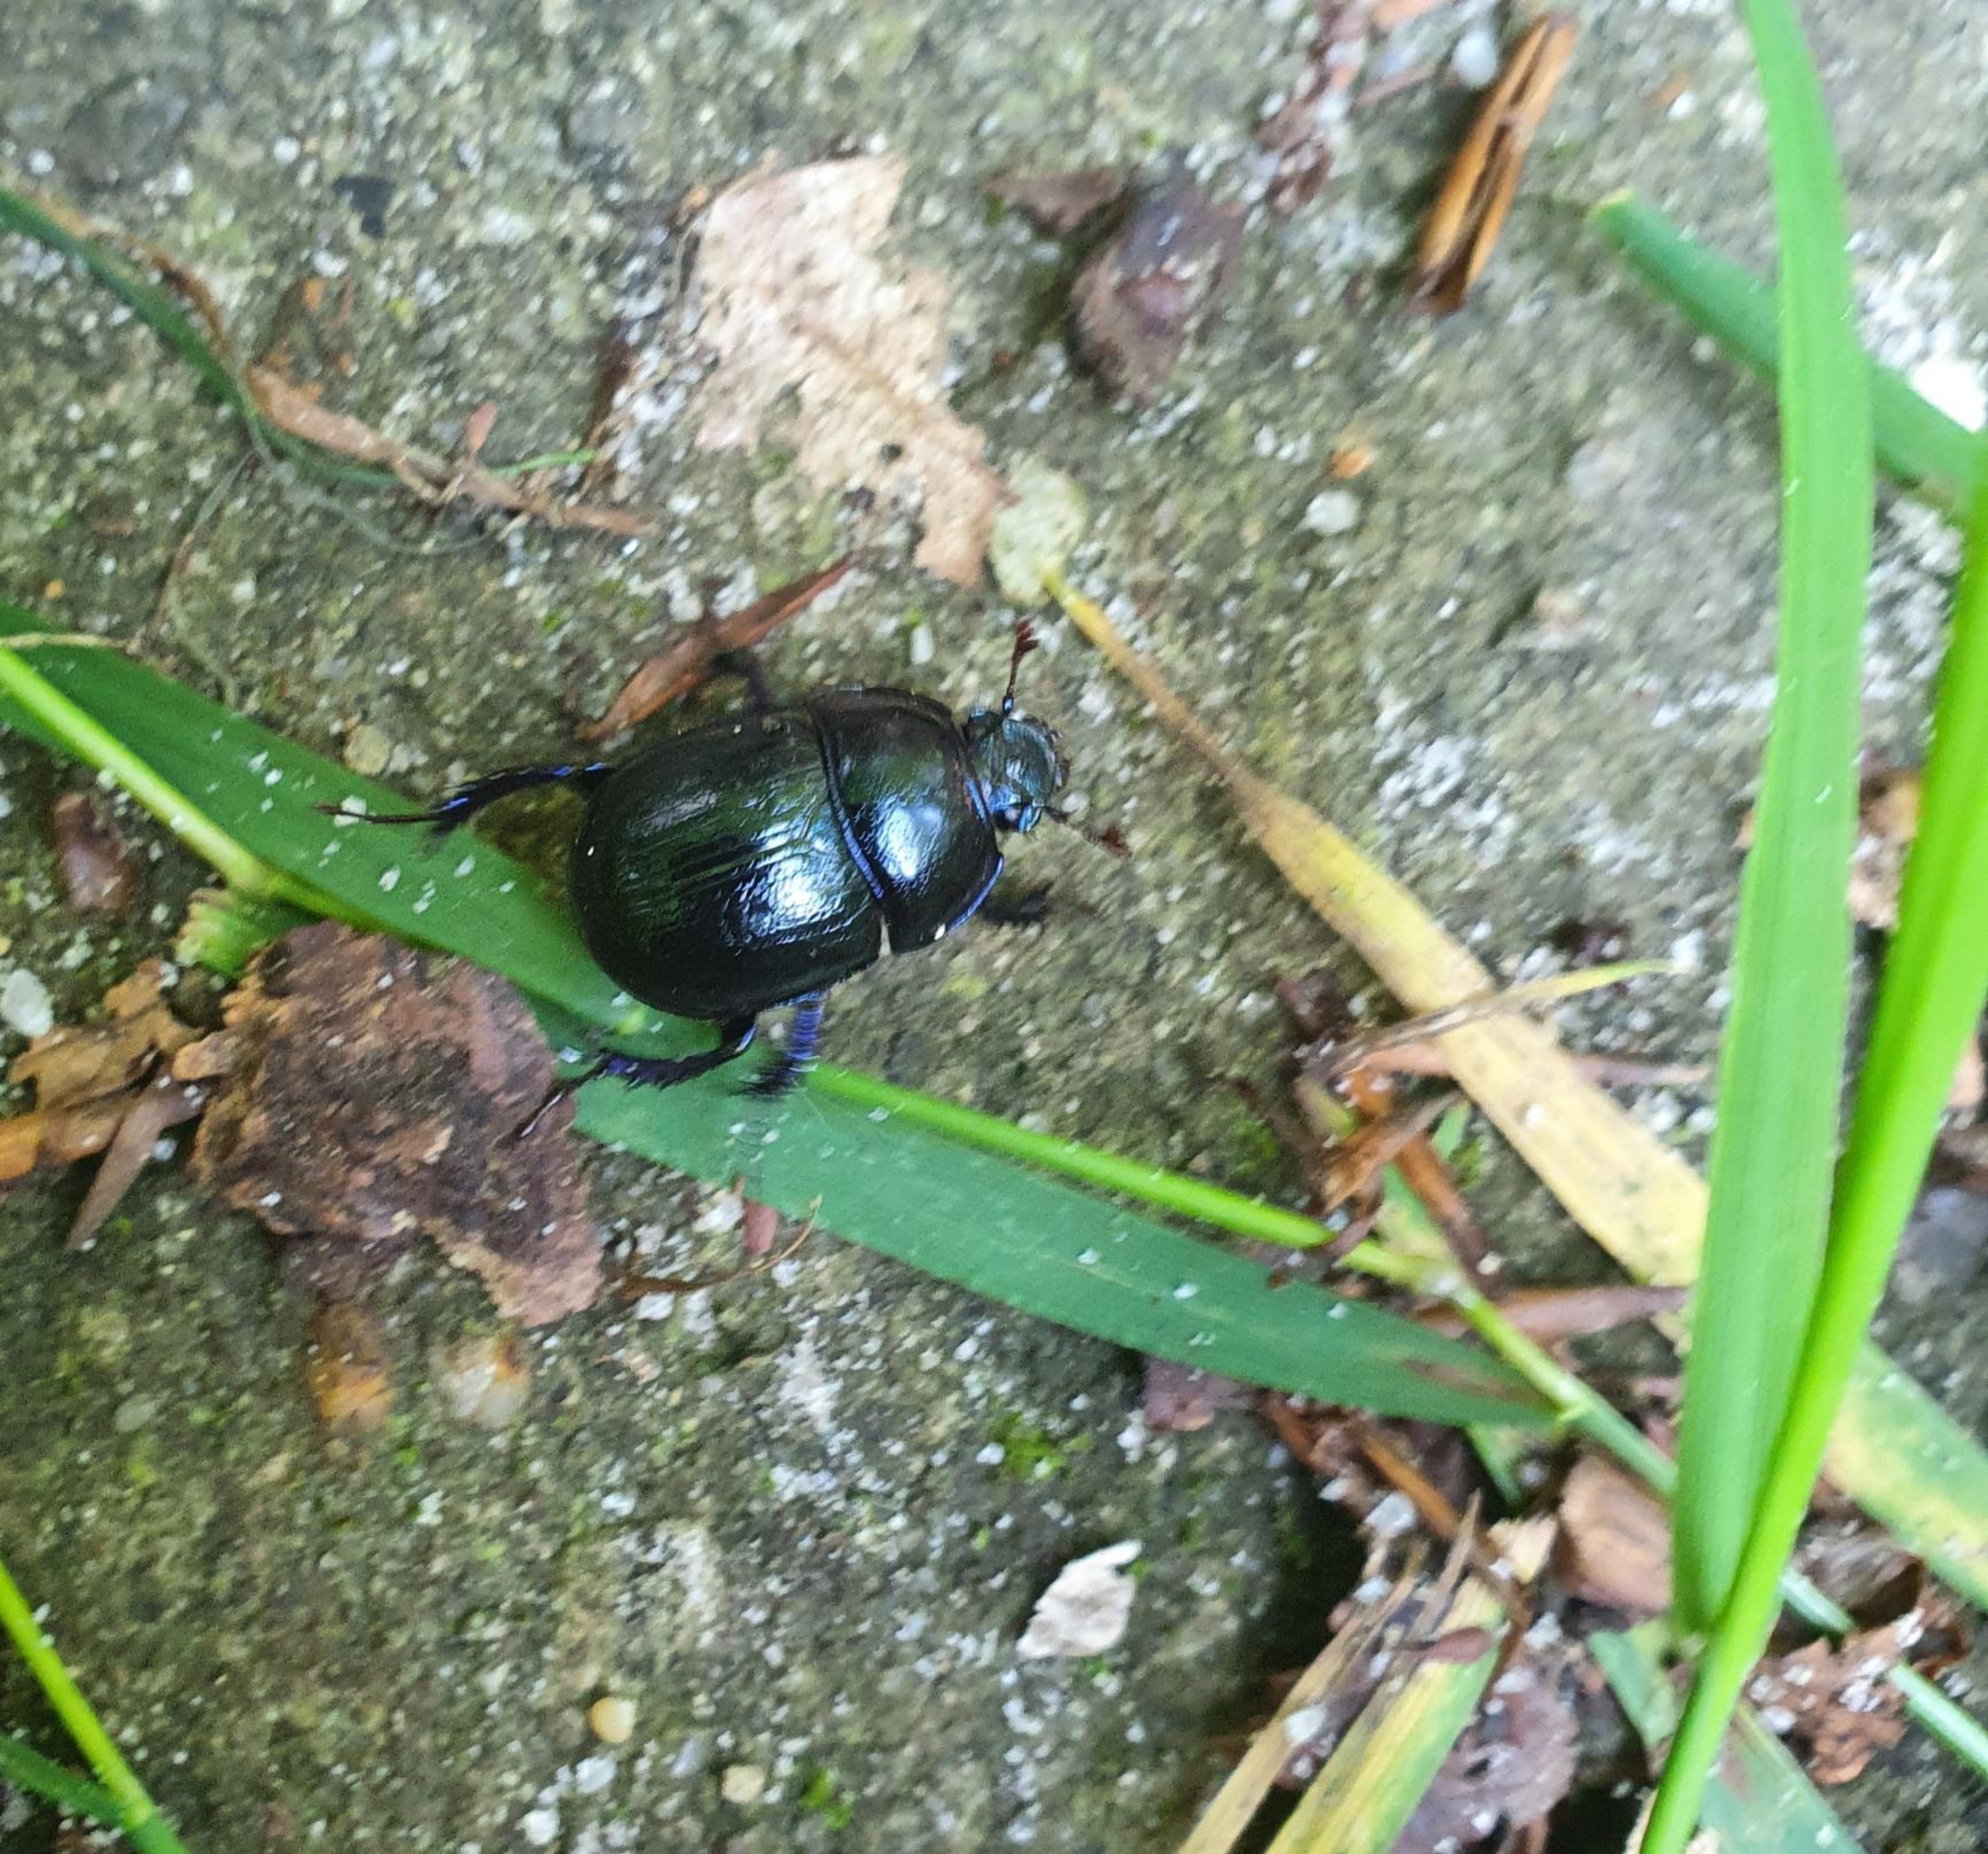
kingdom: Animalia
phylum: Arthropoda
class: Insecta
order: Coleoptera
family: Geotrupidae
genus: Anoplotrupes
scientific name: Anoplotrupes stercorosus
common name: Skovskarnbasse
